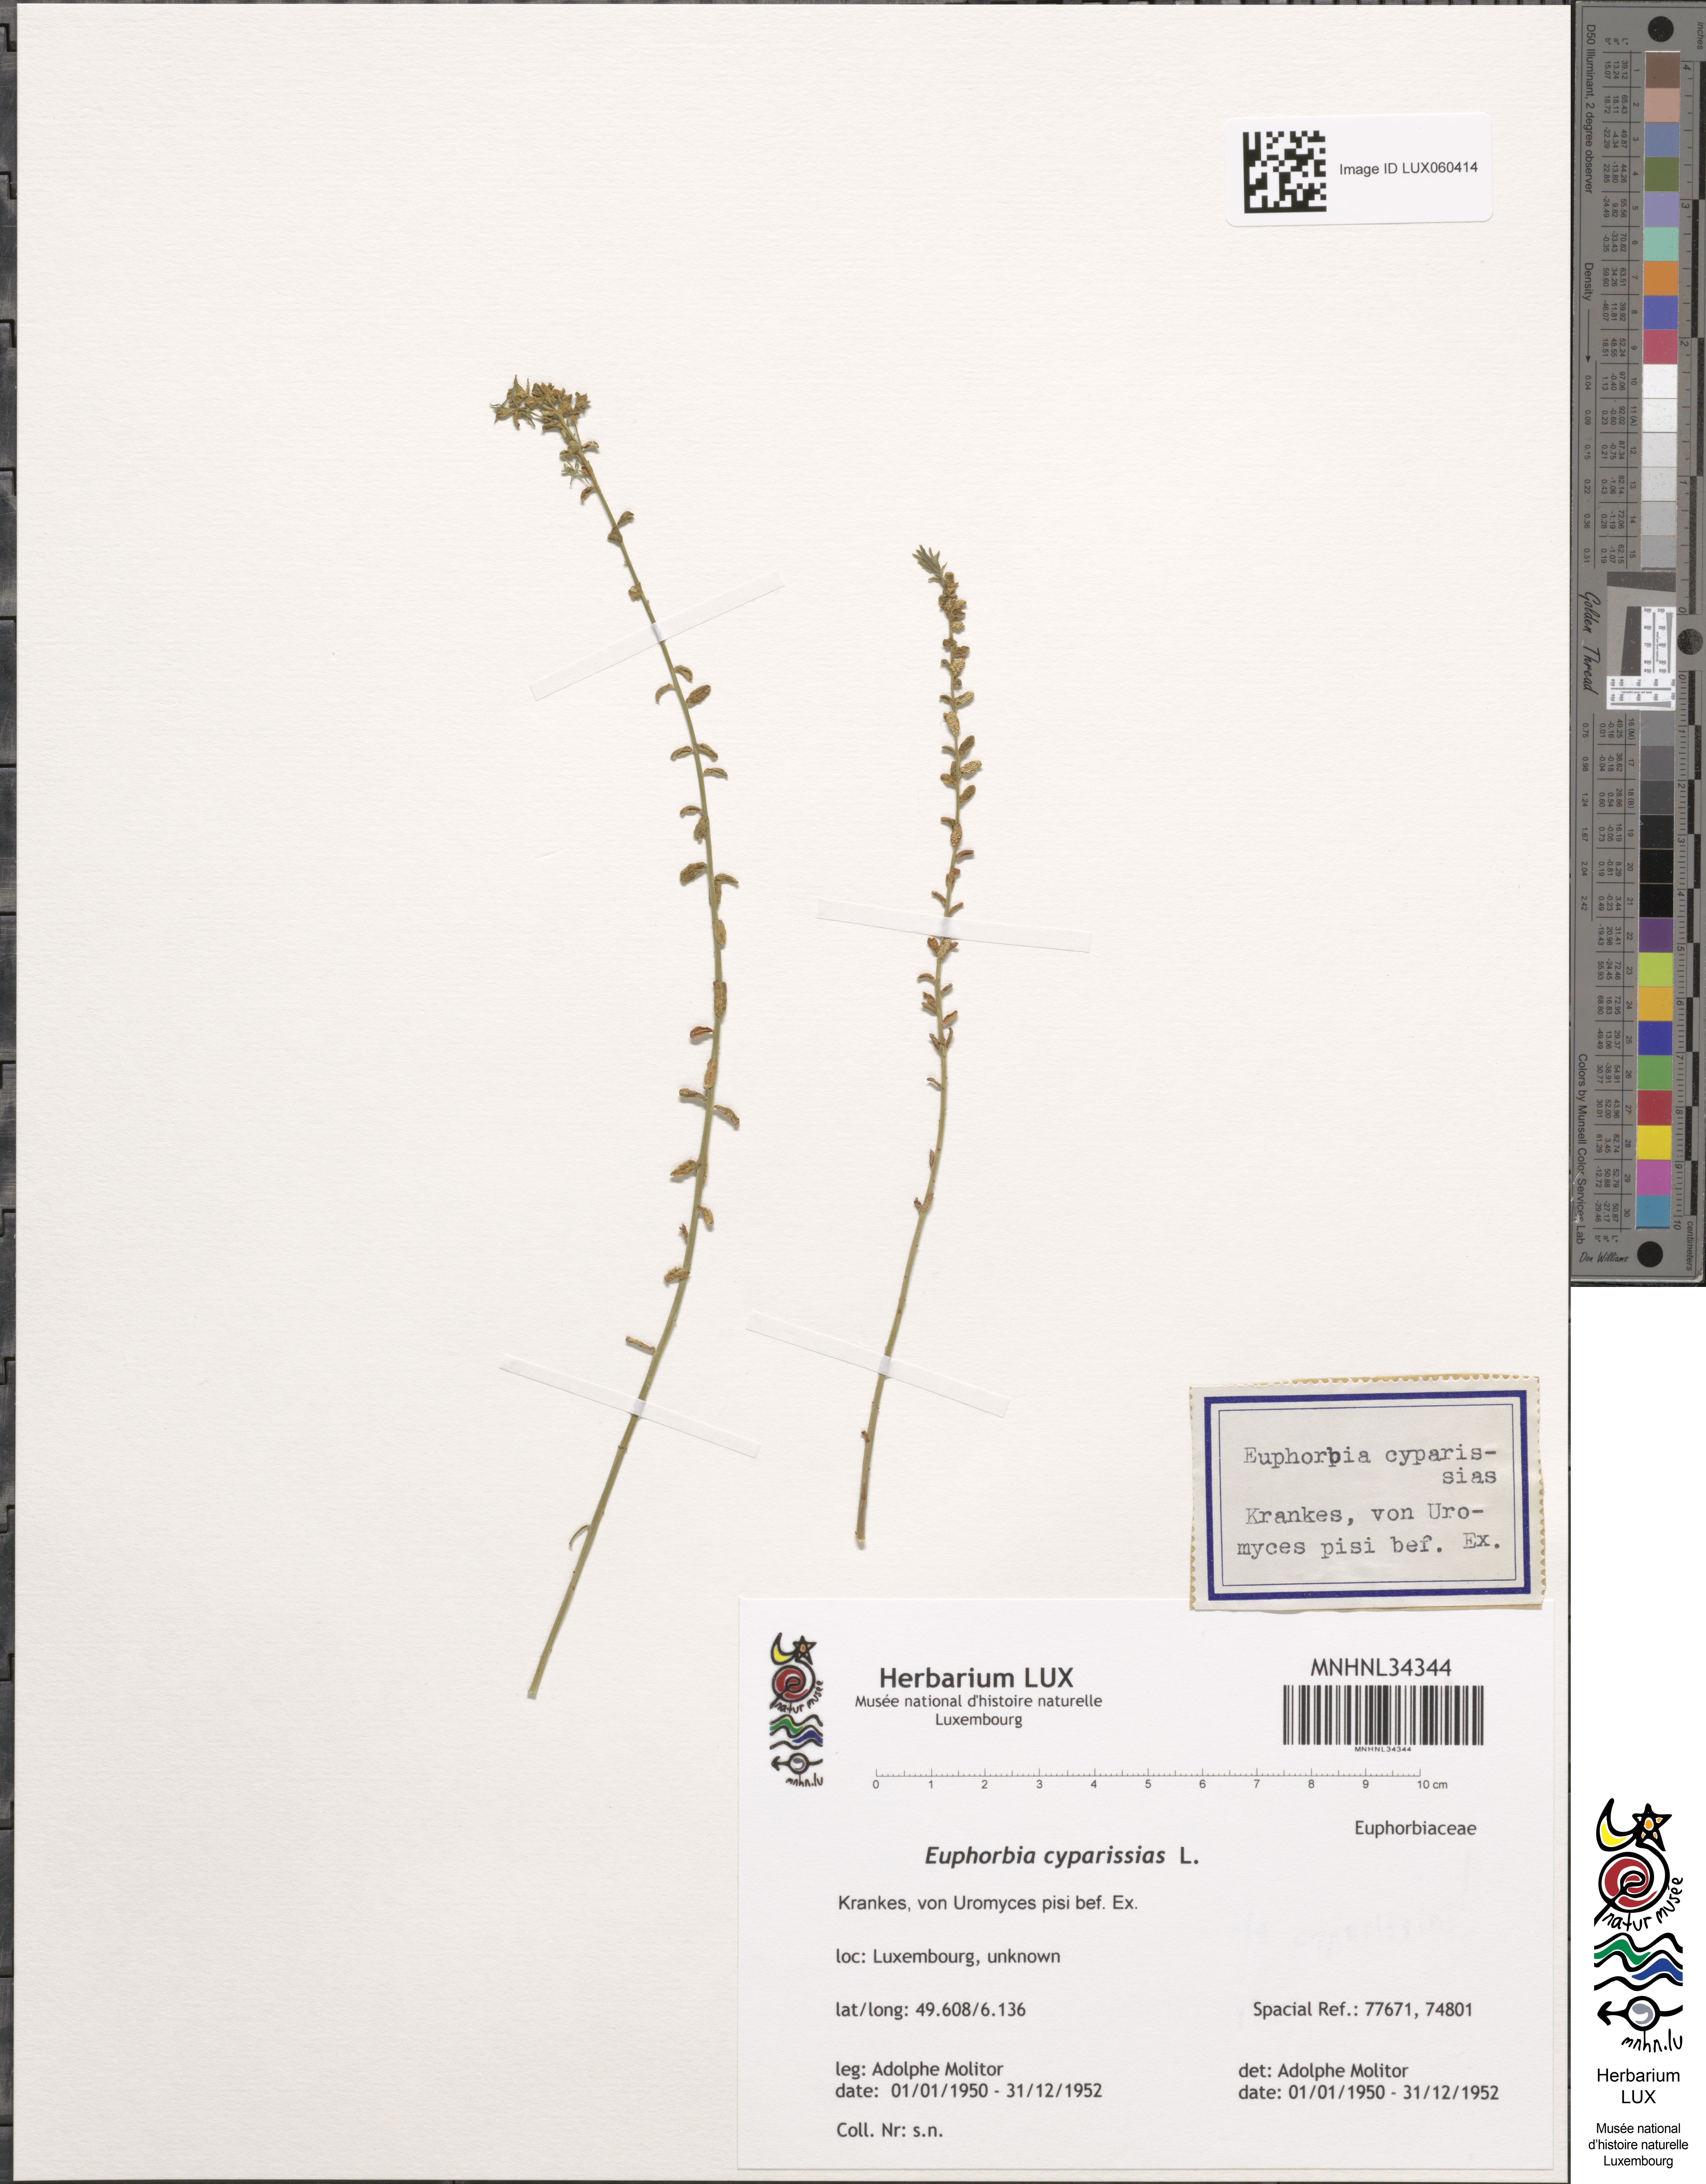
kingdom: Plantae
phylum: Tracheophyta
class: Magnoliopsida
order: Malpighiales
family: Euphorbiaceae
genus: Euphorbia
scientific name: Euphorbia cyparissias
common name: Cypress spurge
